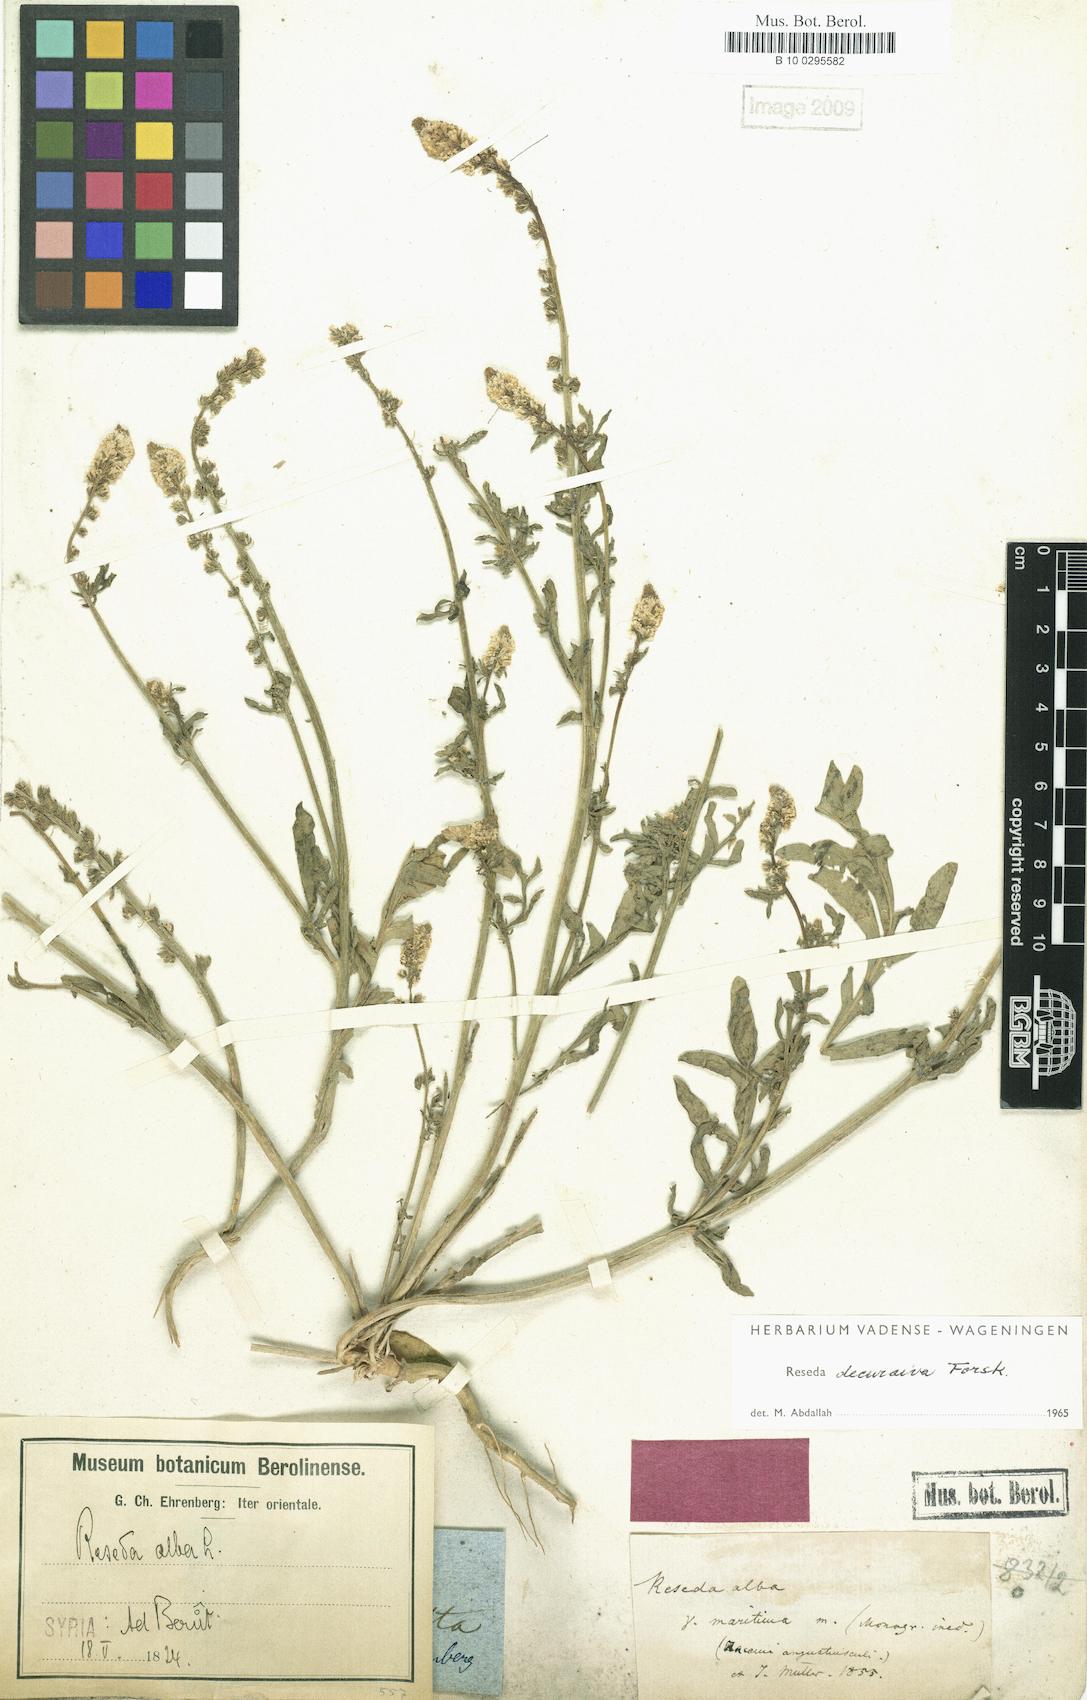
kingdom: Plantae
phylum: Tracheophyta
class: Magnoliopsida
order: Brassicales
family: Resedaceae
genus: Reseda
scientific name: Reseda alba
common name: White mignonette
